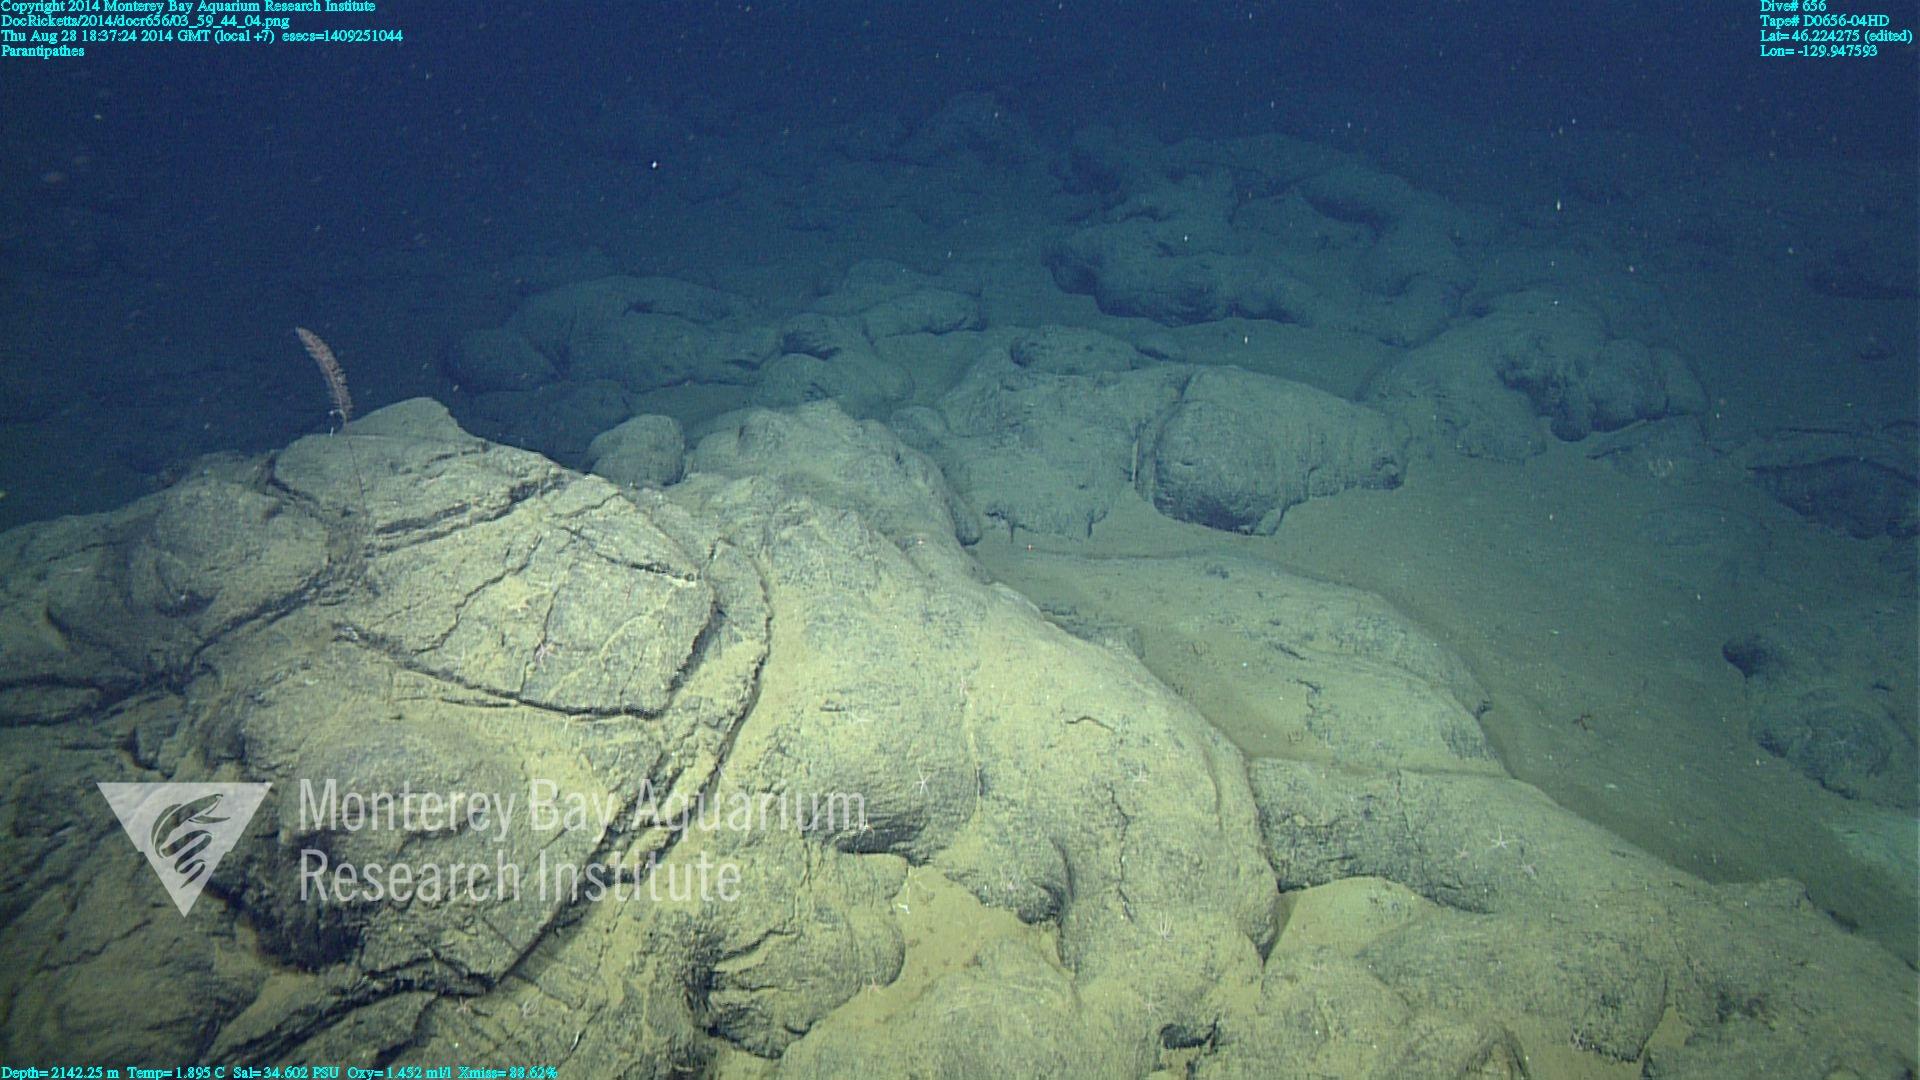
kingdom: Animalia
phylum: Cnidaria
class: Anthozoa
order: Antipatharia
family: Schizopathidae
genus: Parantipathes
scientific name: Parantipathes
